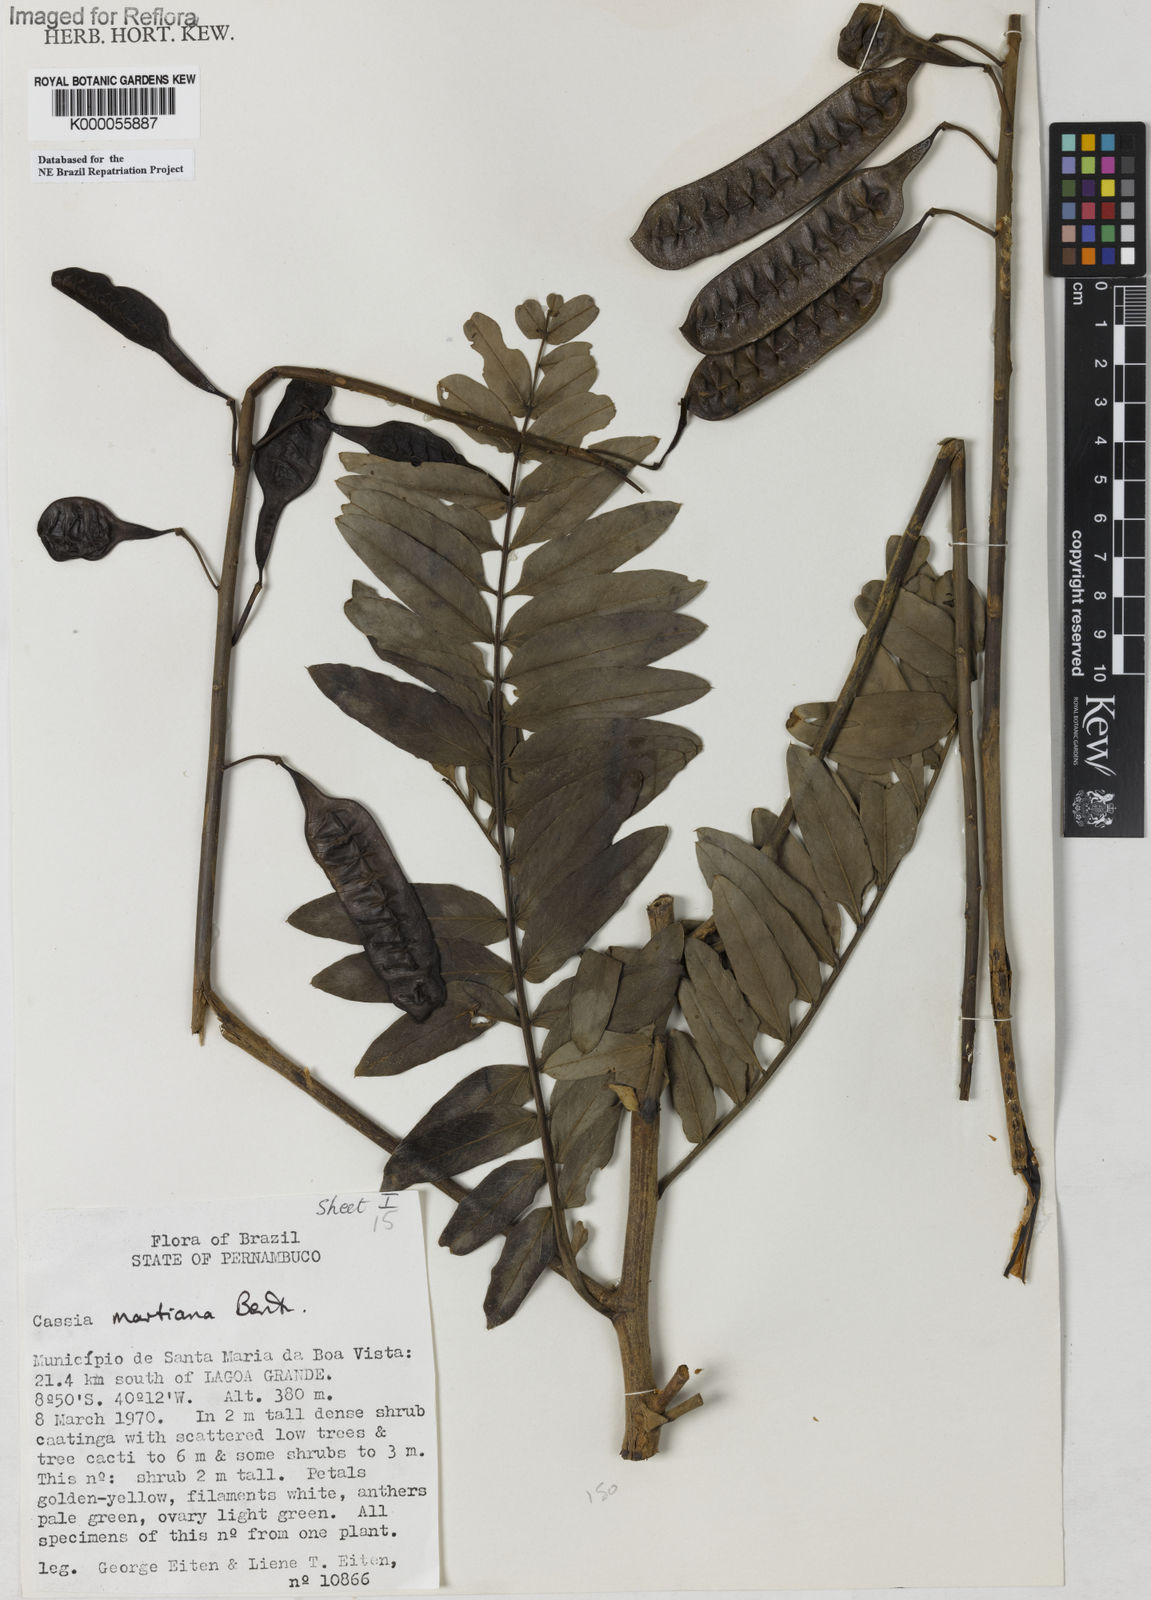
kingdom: Plantae
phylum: Tracheophyta
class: Magnoliopsida
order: Fabales
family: Fabaceae
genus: Senna
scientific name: Senna martiana
